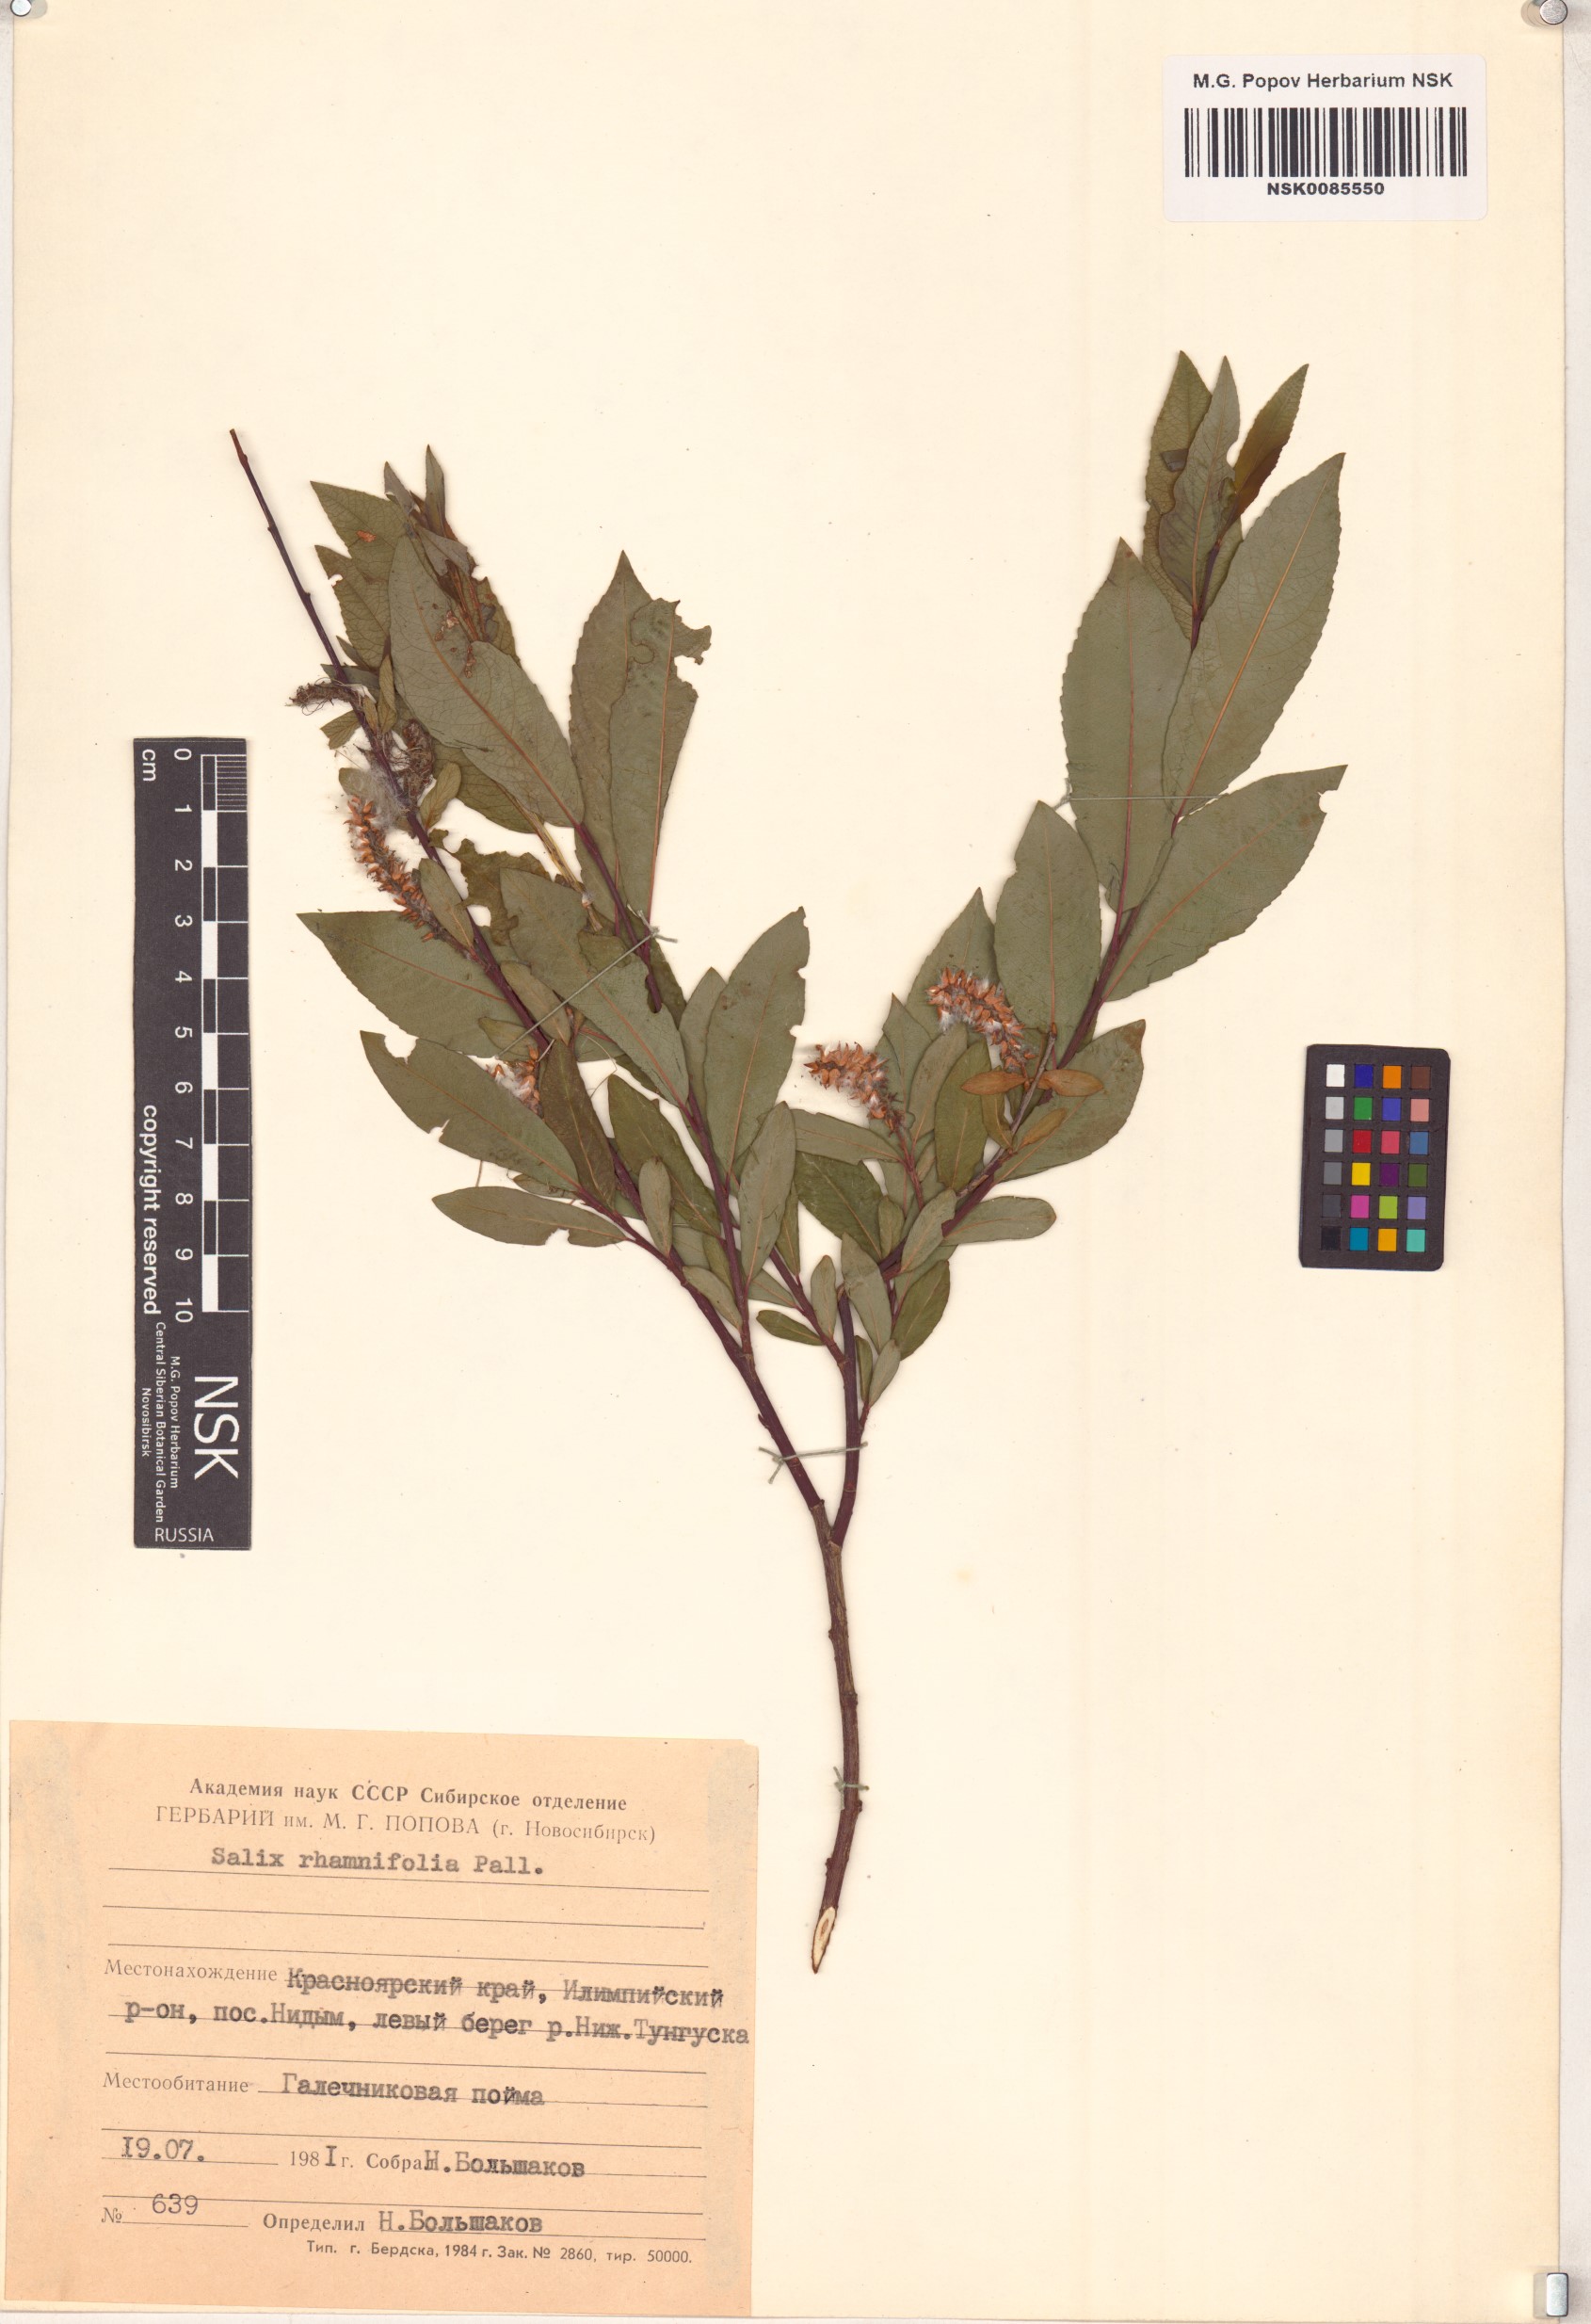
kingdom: Plantae
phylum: Tracheophyta
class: Magnoliopsida
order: Malpighiales
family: Salicaceae
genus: Salix
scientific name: Salix rhamnifolia
